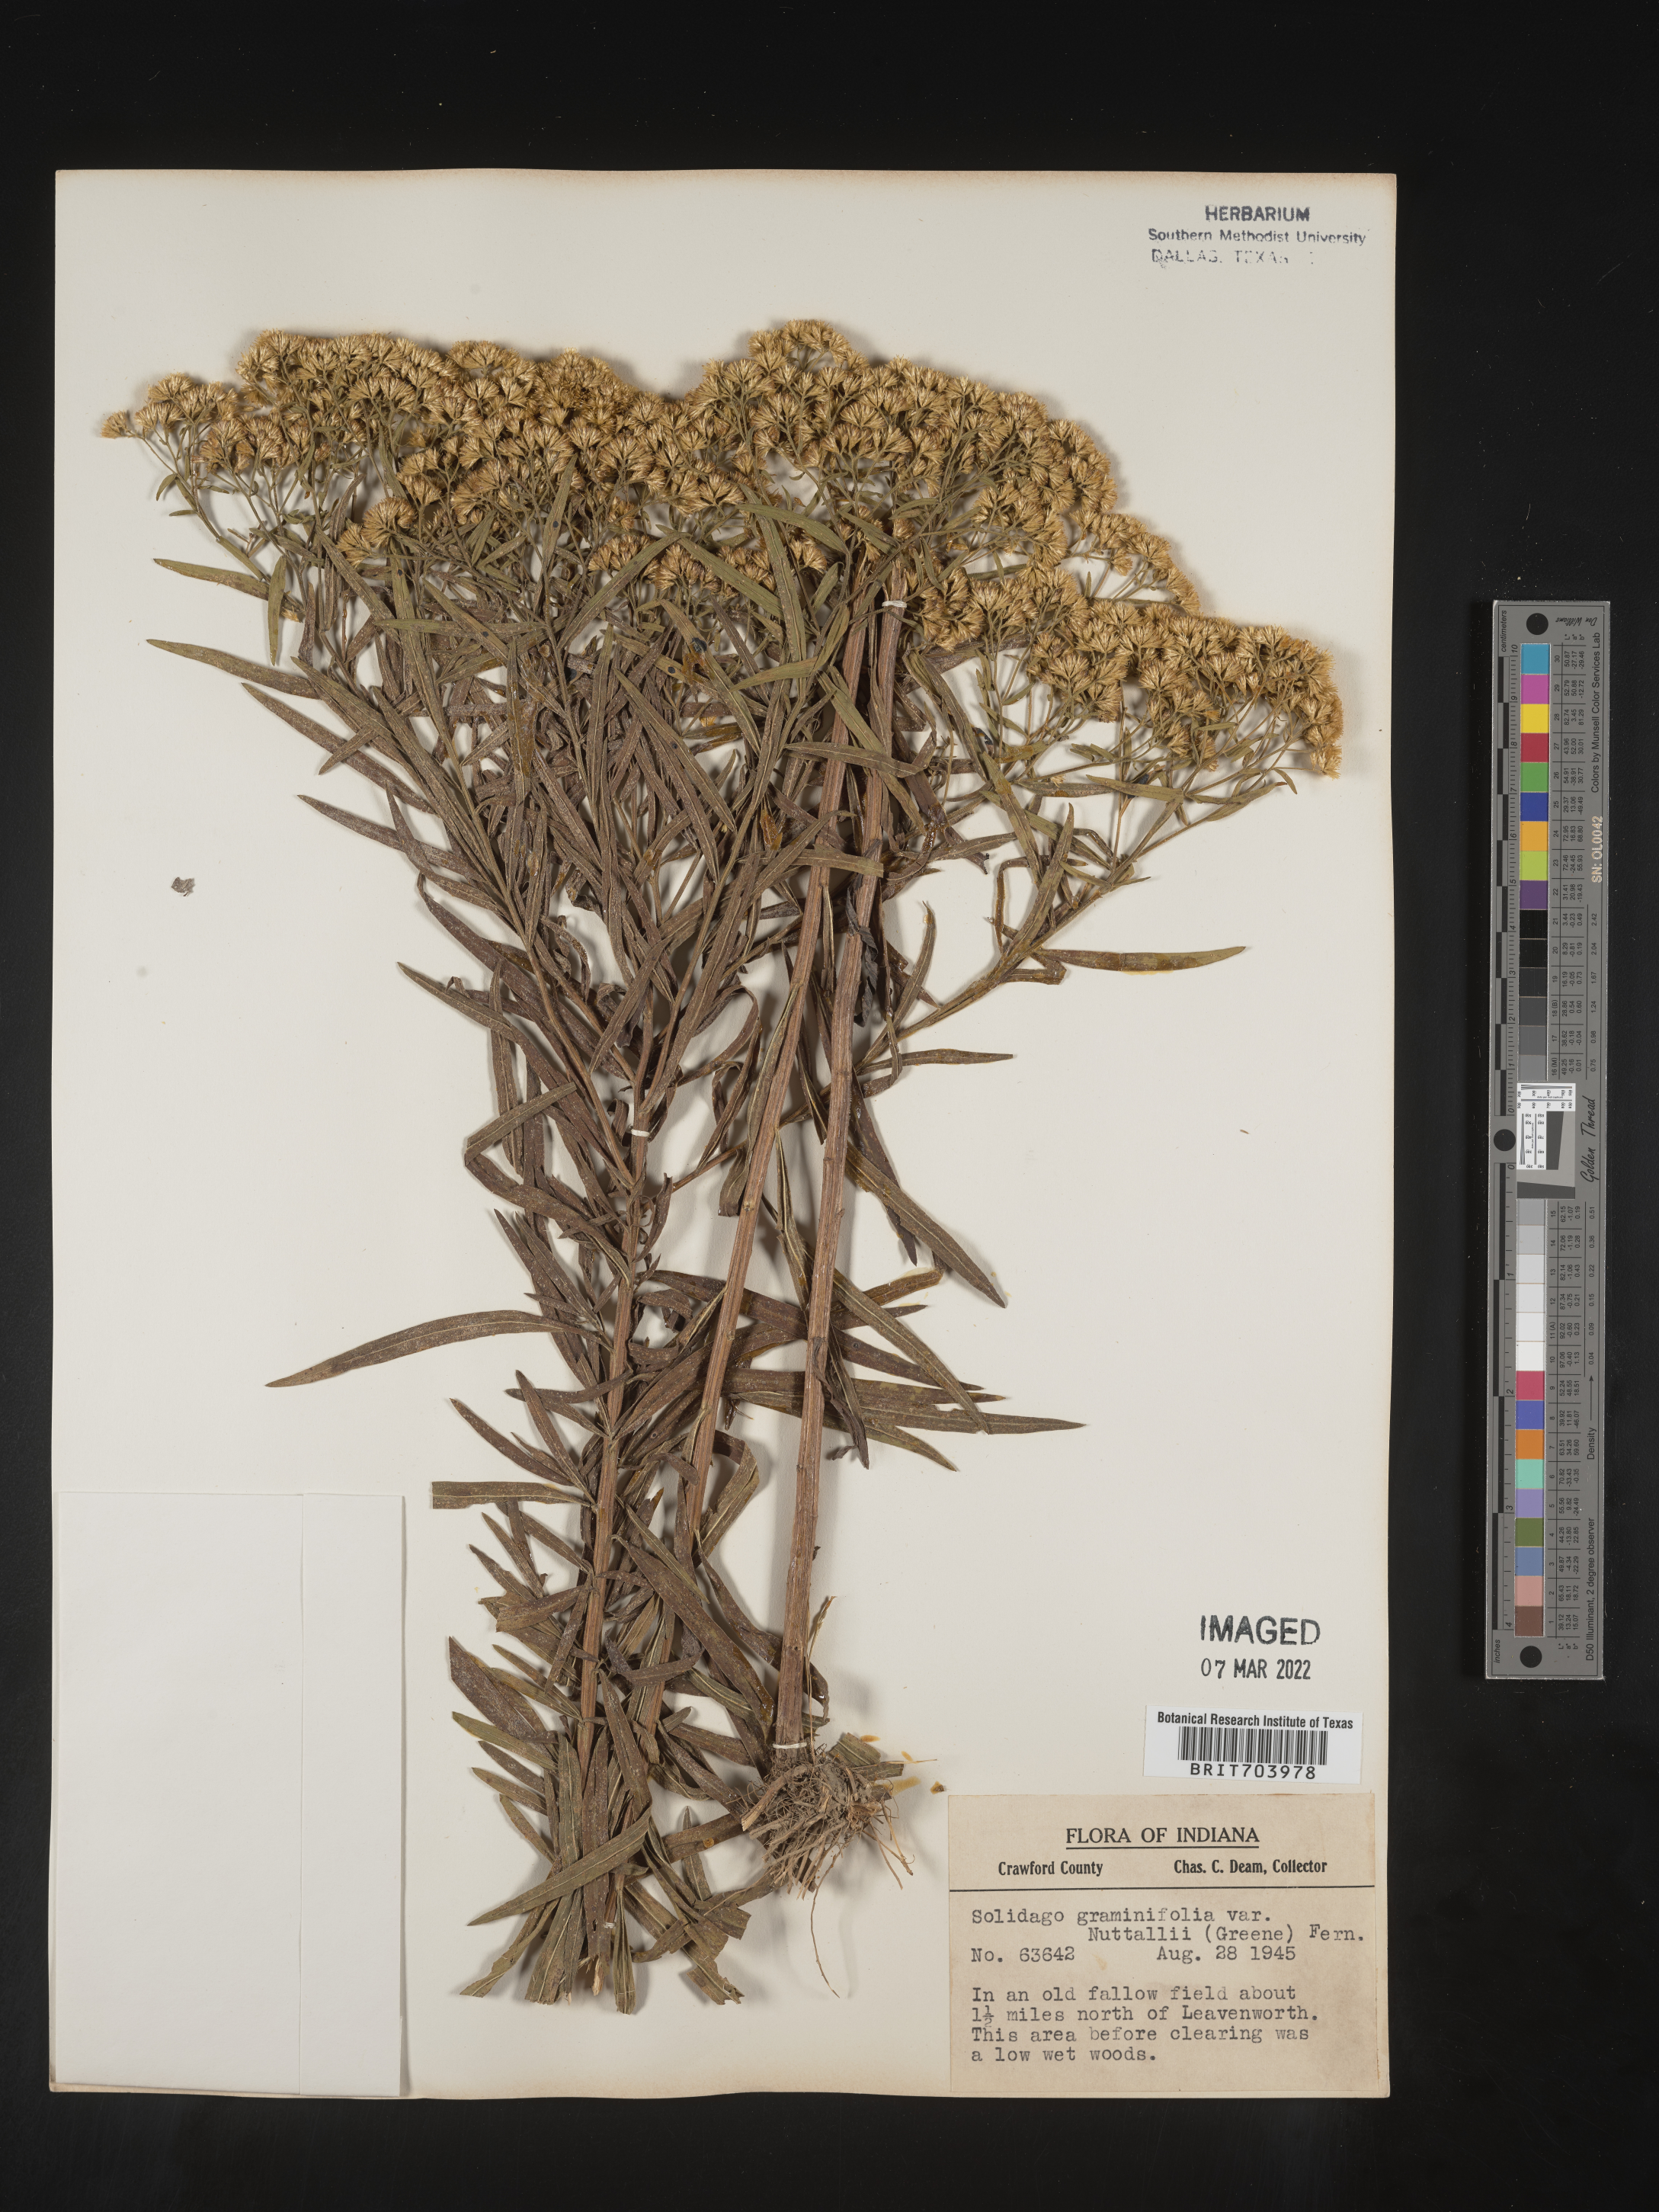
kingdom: Plantae
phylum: Tracheophyta
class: Magnoliopsida
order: Asterales
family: Asteraceae
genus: Euthamia
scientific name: Euthamia graminifolia
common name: Common goldentop
